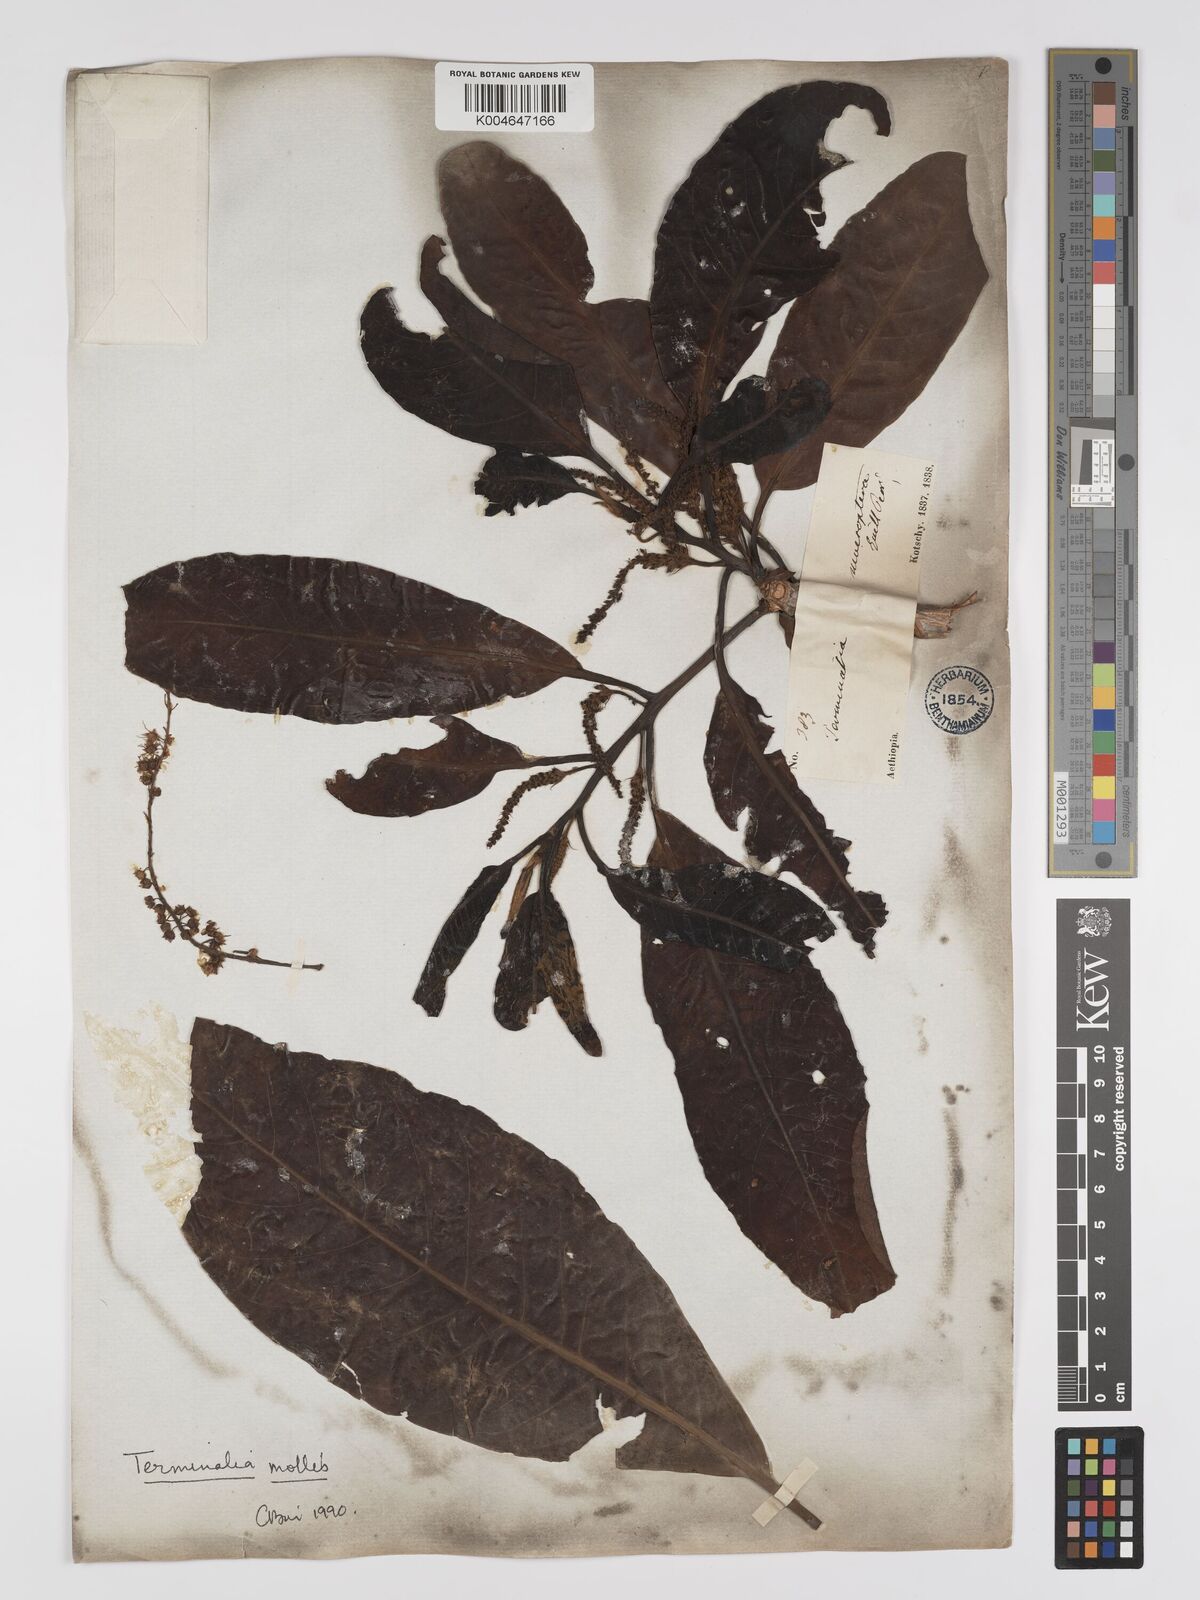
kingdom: Plantae
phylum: Tracheophyta
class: Magnoliopsida
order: Myrtales
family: Combretaceae
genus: Terminalia
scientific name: Terminalia mollis
